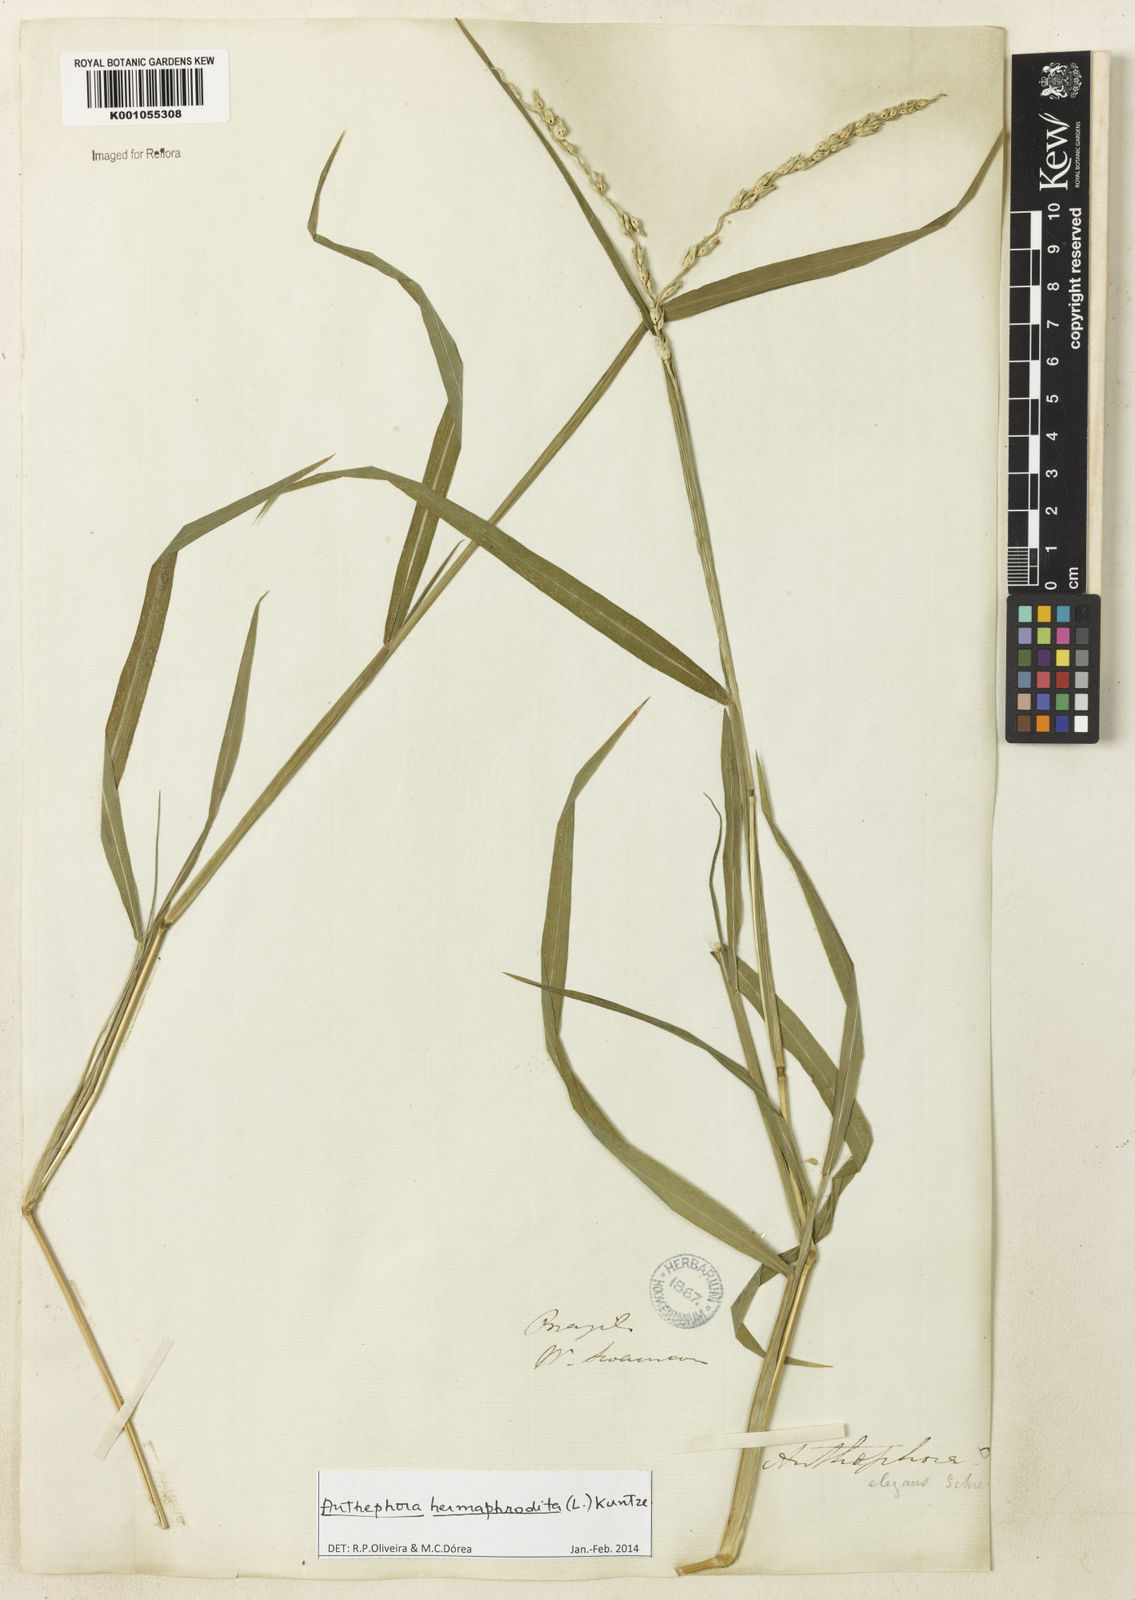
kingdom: Plantae
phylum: Tracheophyta
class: Liliopsida
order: Poales
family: Poaceae
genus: Anthephora
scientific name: Anthephora hermaphrodita
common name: Oldfield grass
